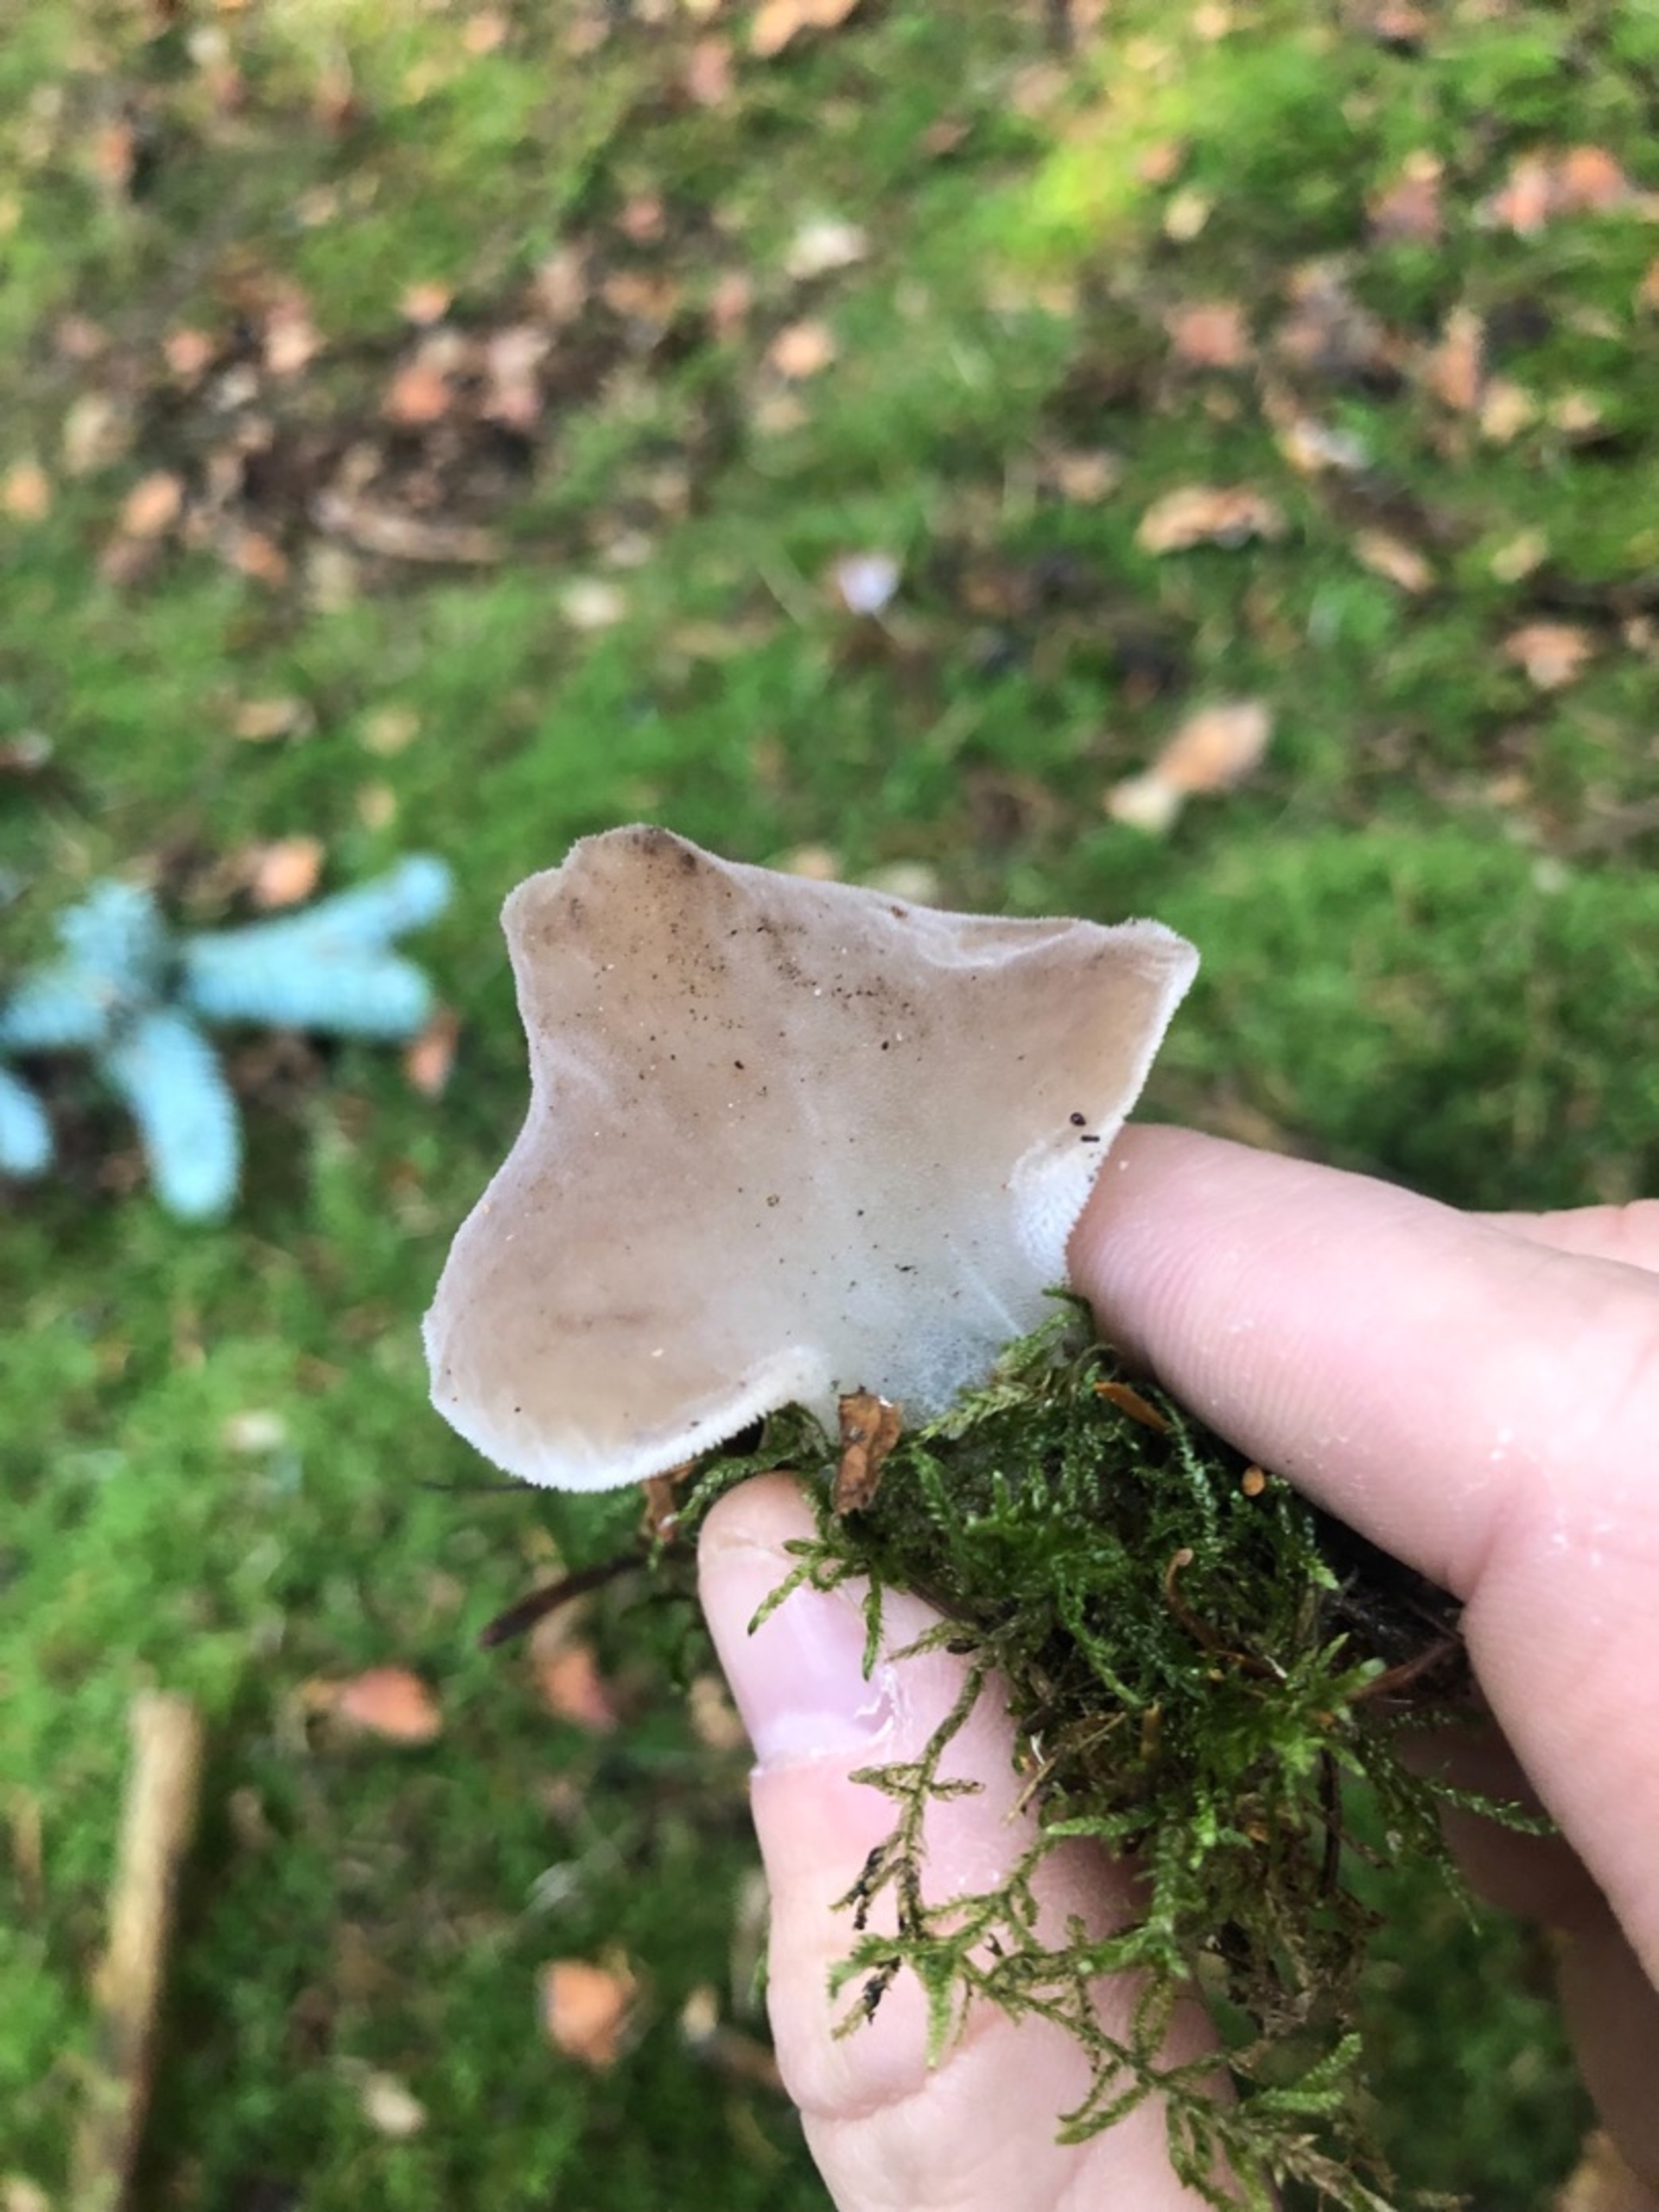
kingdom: Fungi
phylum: Basidiomycota
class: Agaricomycetes
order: Auriculariales
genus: Pseudohydnum
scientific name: Pseudohydnum
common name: Bævretand
